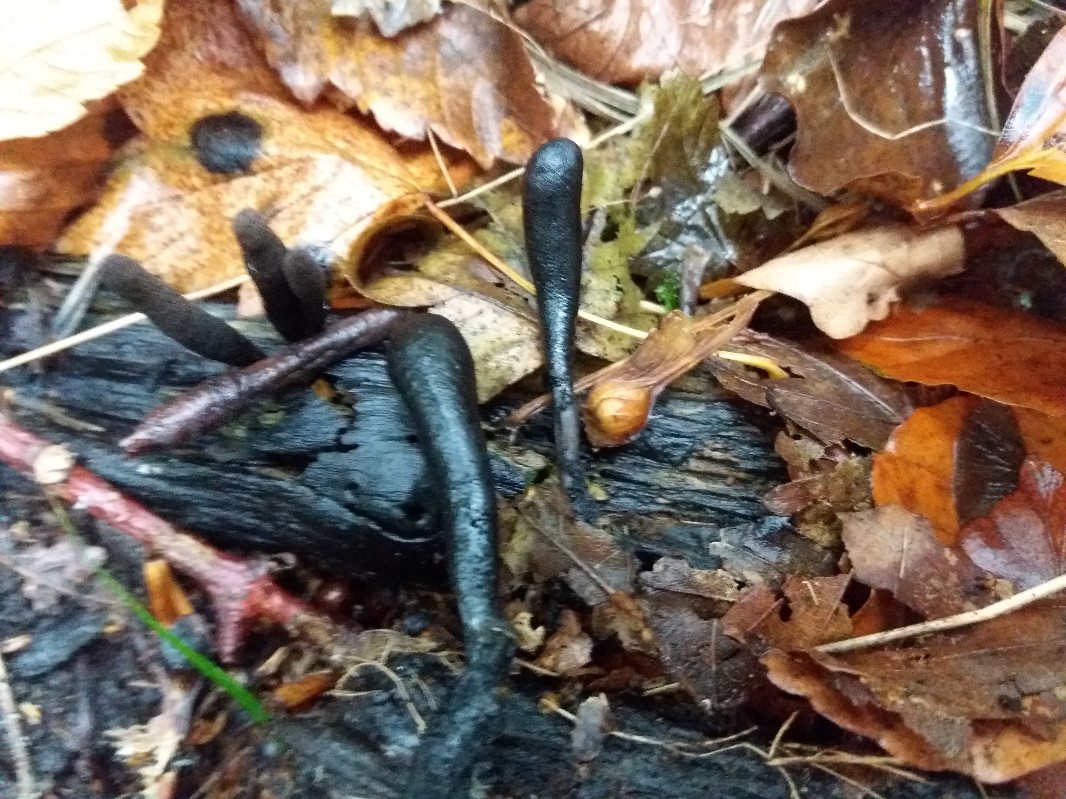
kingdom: Fungi
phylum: Ascomycota
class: Sordariomycetes
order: Xylariales
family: Xylariaceae
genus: Xylaria
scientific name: Xylaria longipes
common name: slank stødsvamp
